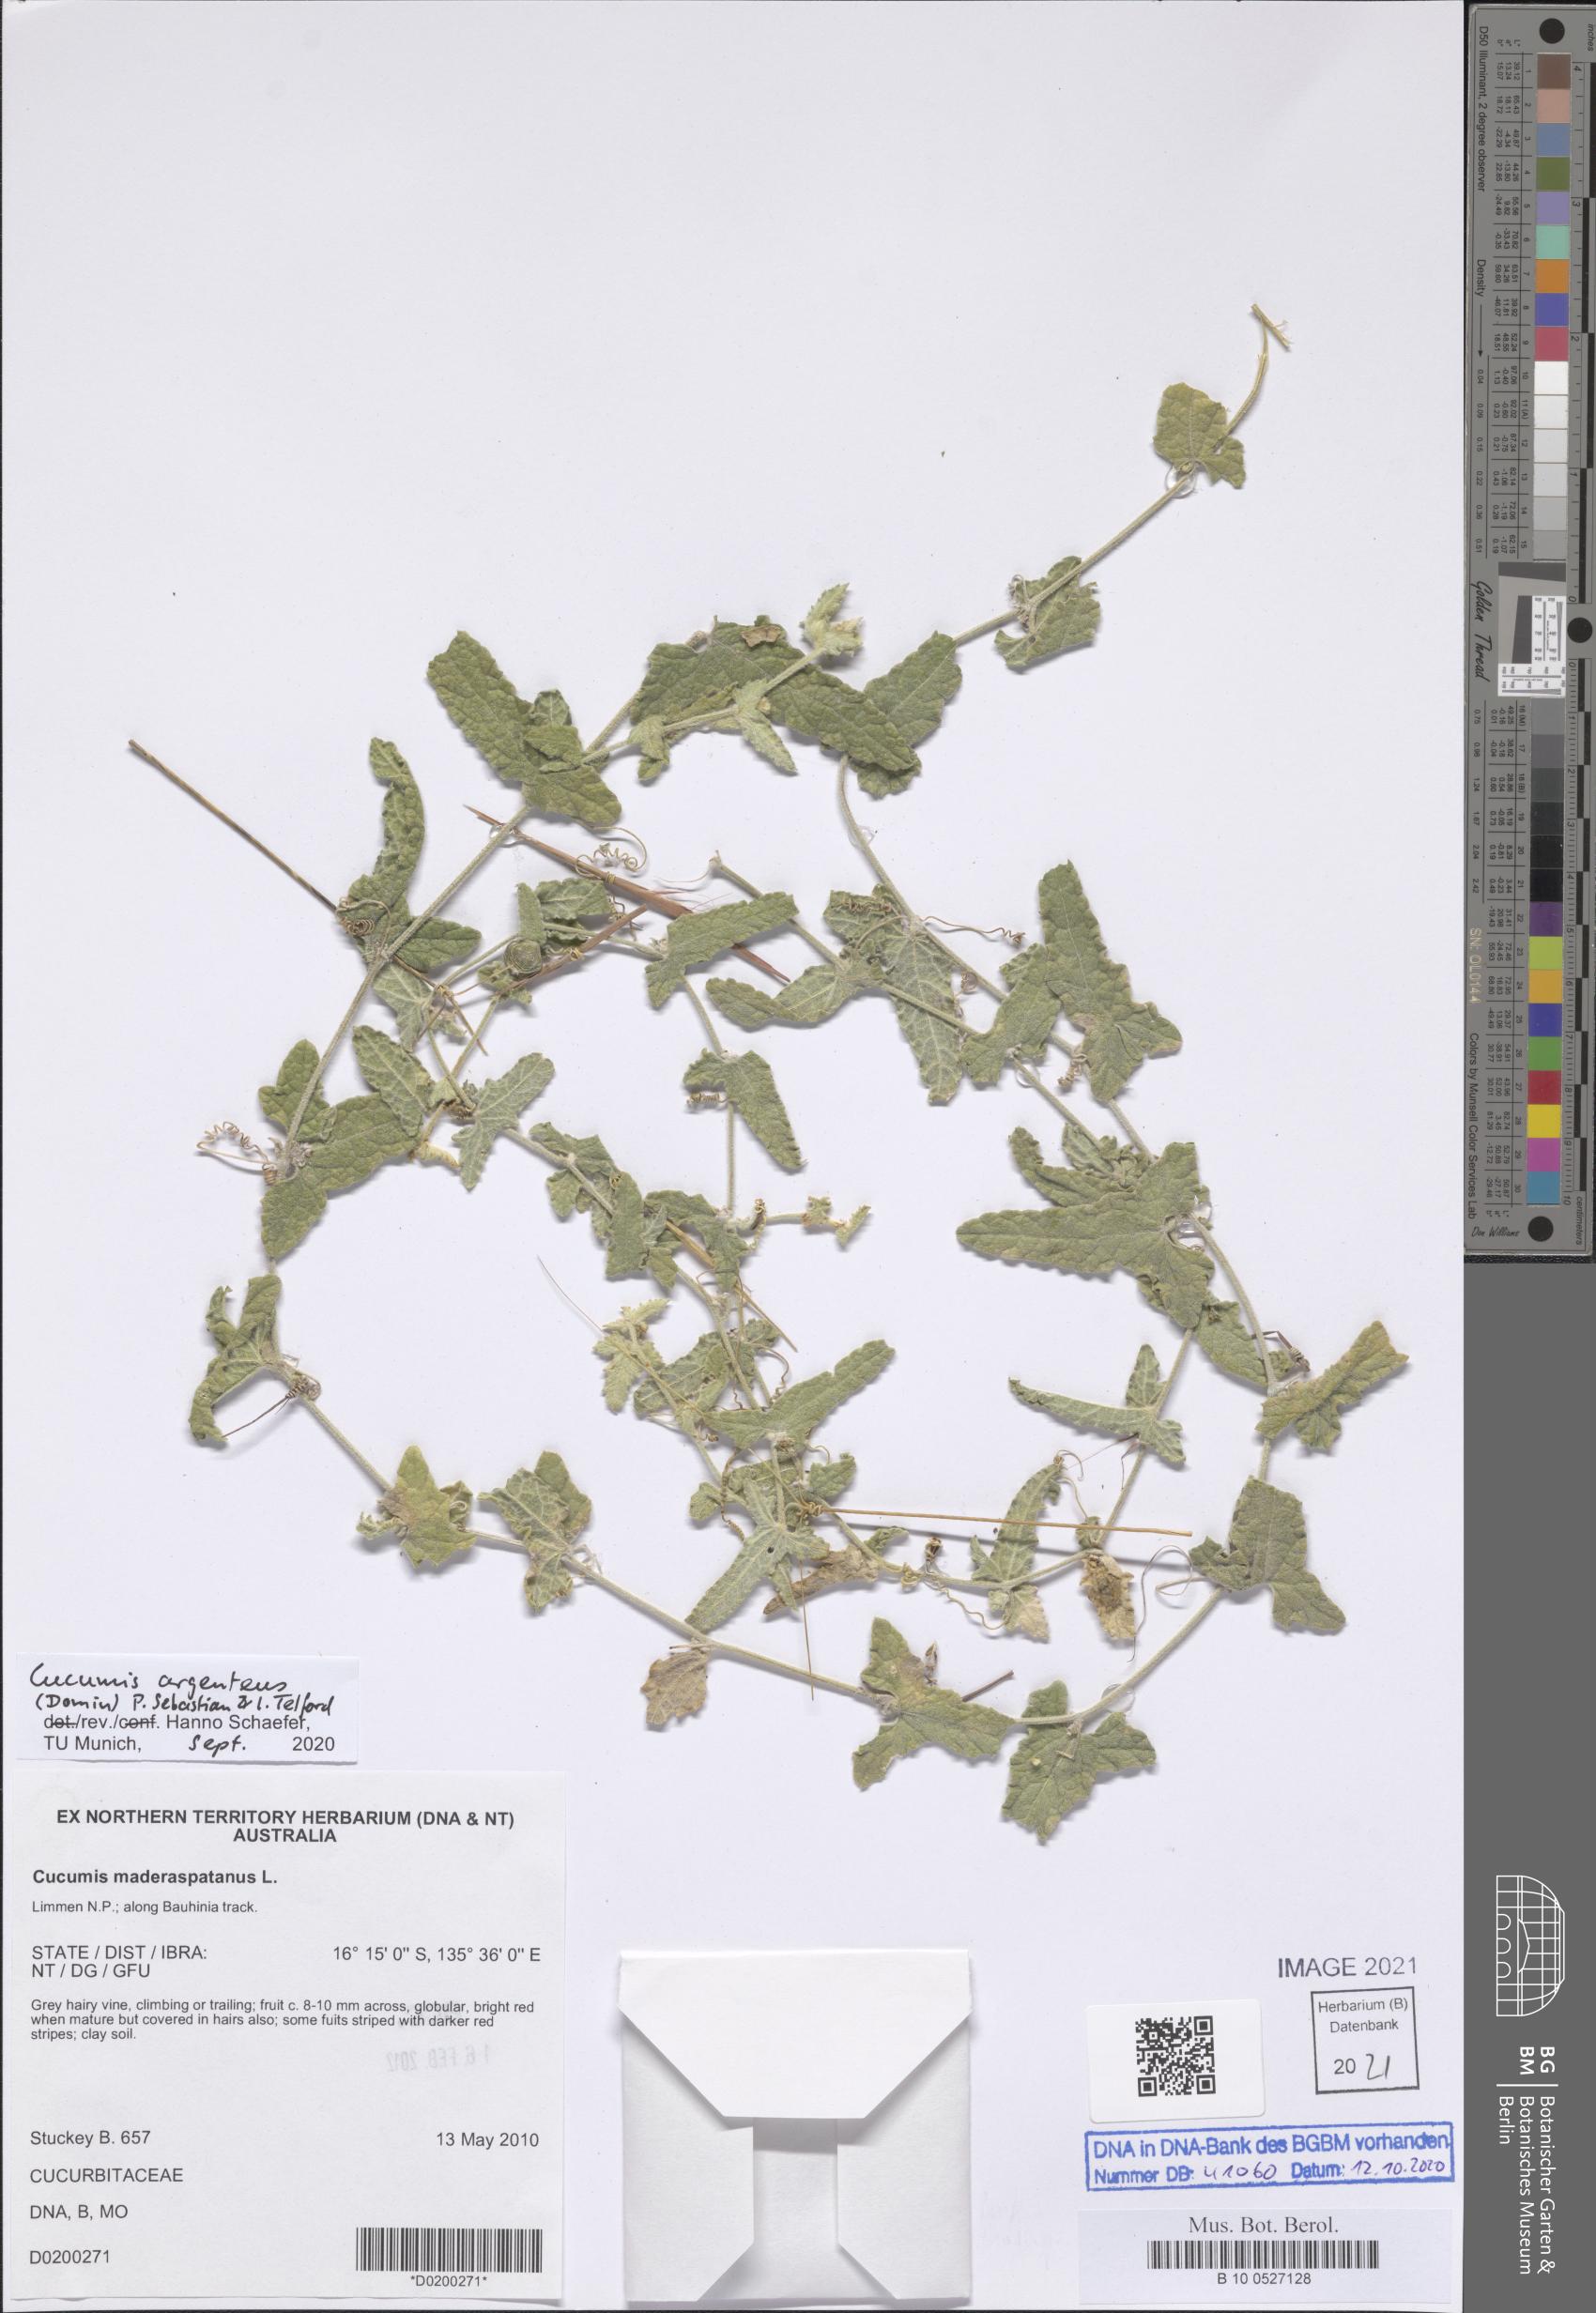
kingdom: Plantae
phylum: Tracheophyta
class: Magnoliopsida
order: Cucurbitales
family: Cucurbitaceae
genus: Cucumis
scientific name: Cucumis argenteus
